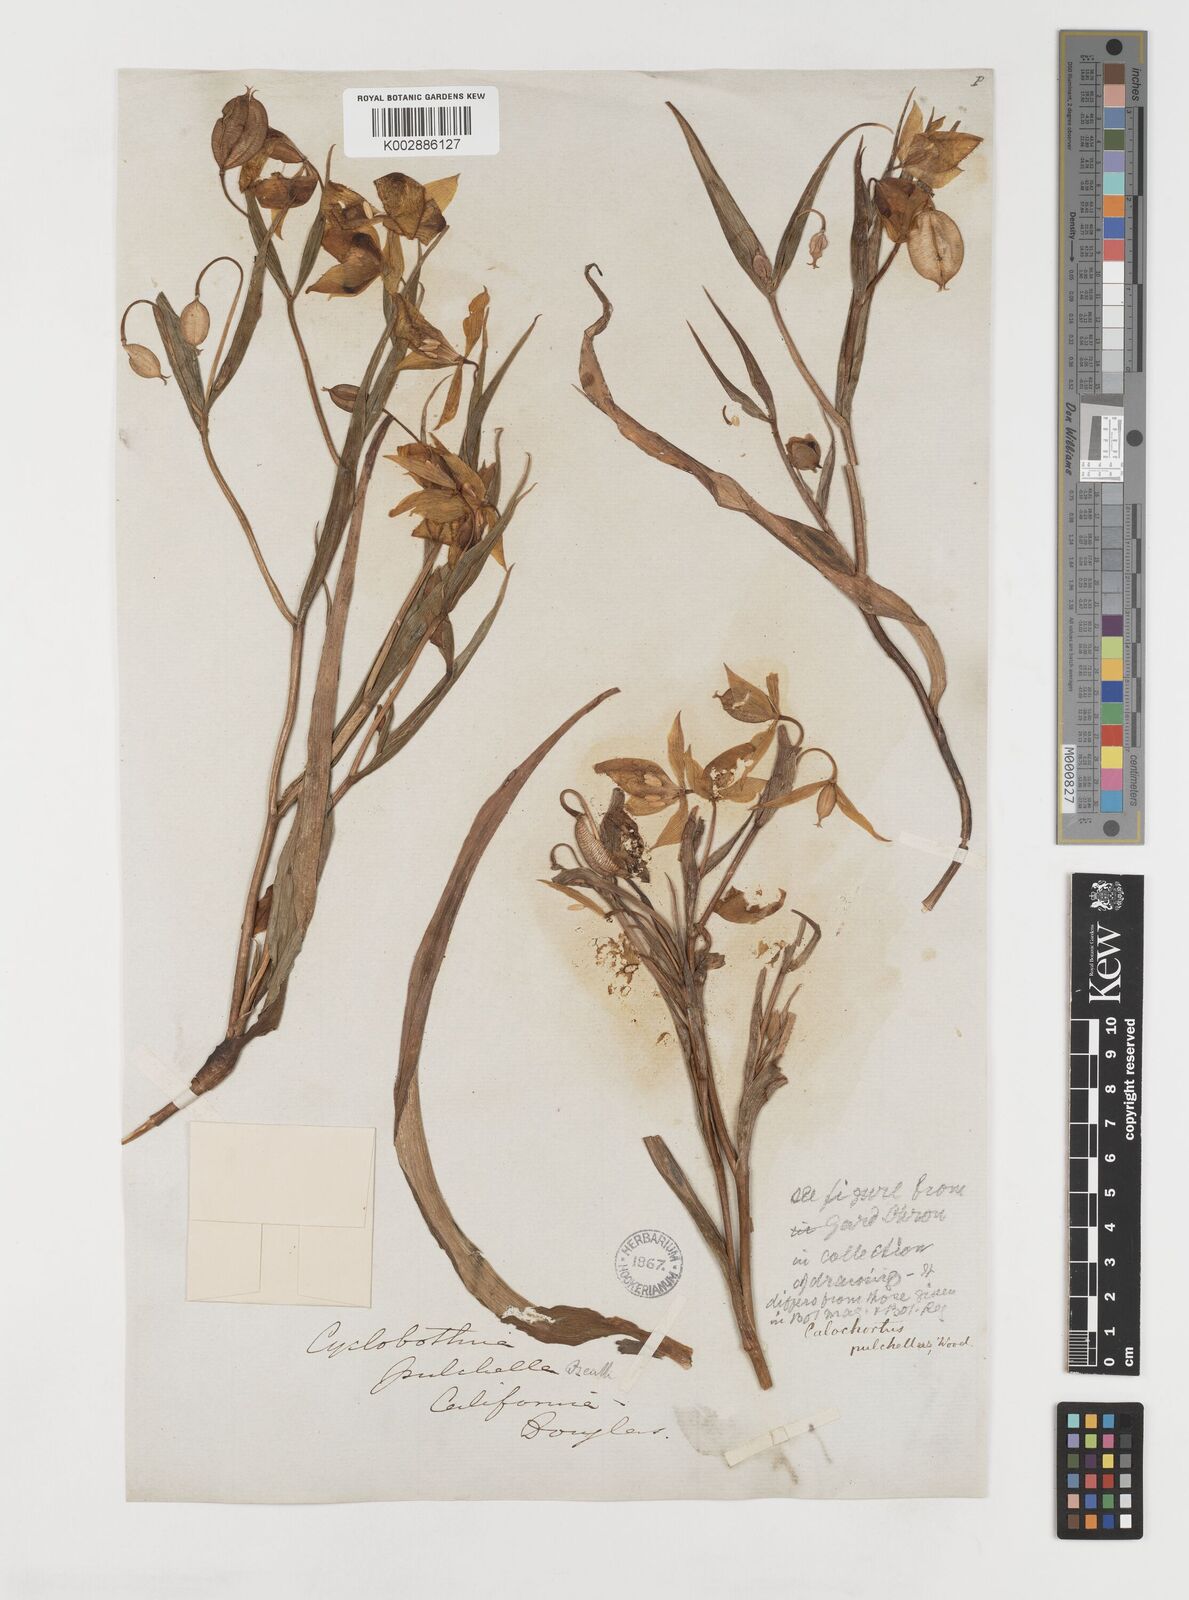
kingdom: Plantae
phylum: Tracheophyta
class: Liliopsida
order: Liliales
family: Liliaceae
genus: Calochortus
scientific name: Calochortus pulchellus
